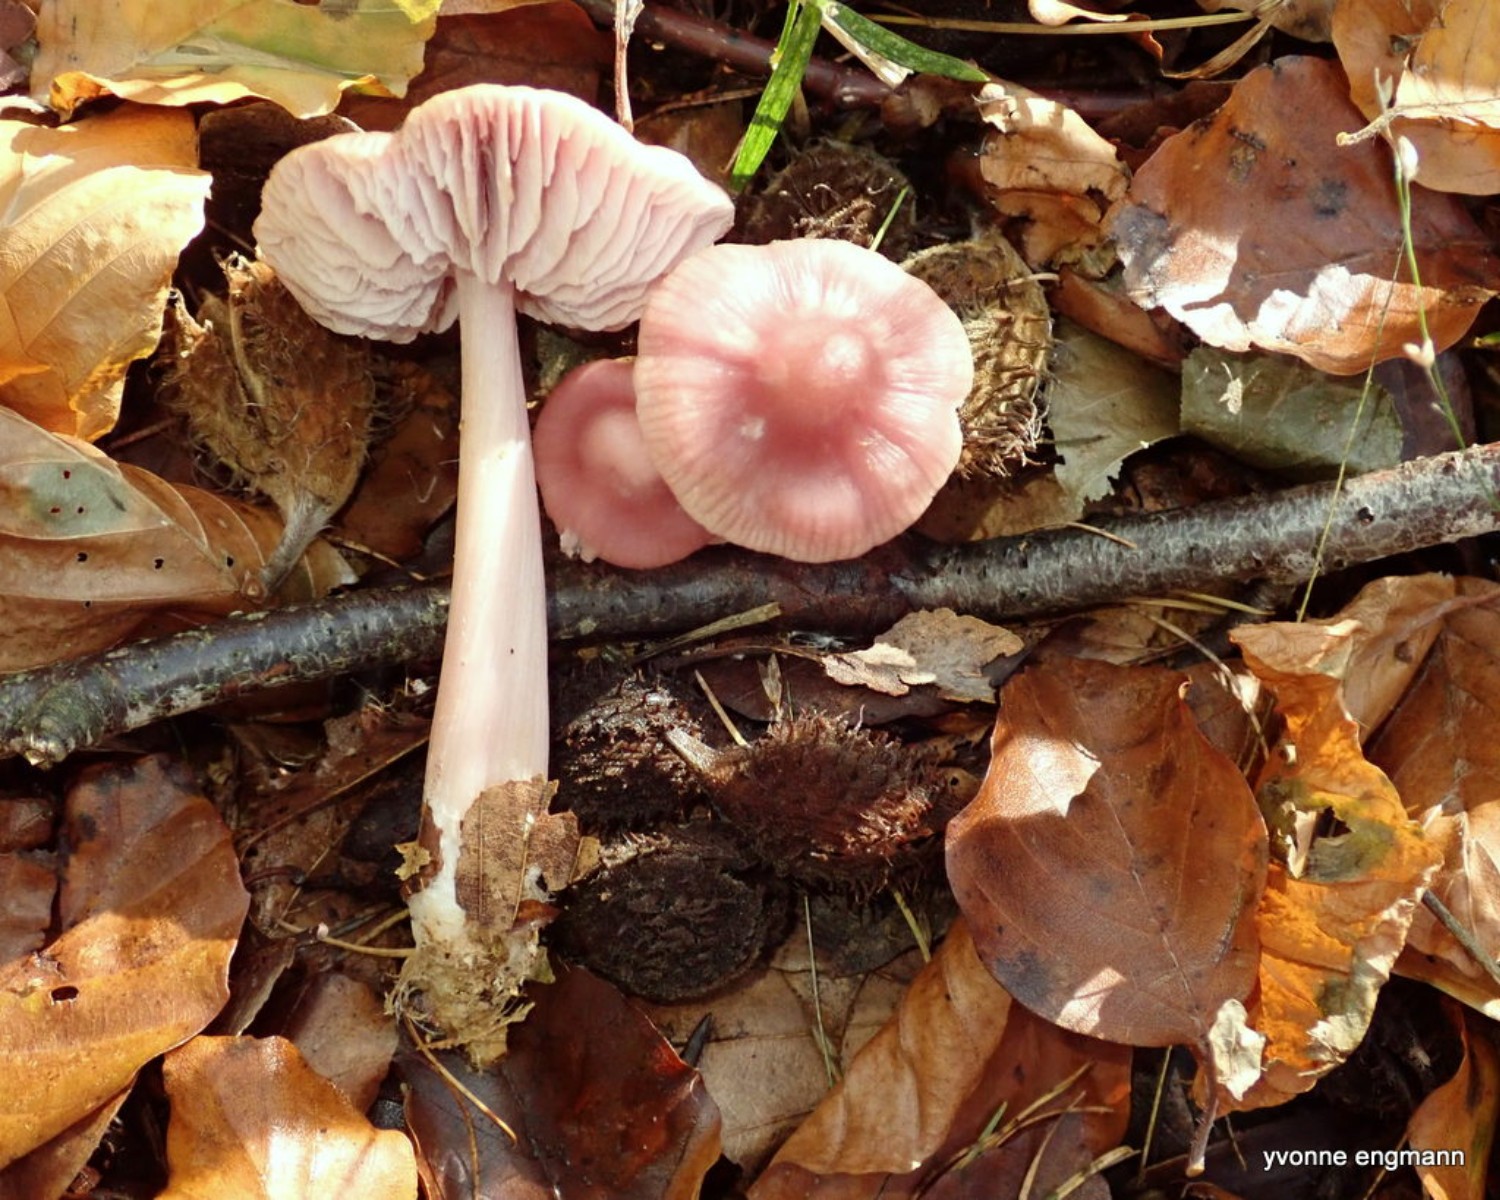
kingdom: Fungi
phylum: Basidiomycota
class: Agaricomycetes
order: Agaricales
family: Mycenaceae
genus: Mycena
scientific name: Mycena rosea
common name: rosa huesvamp
